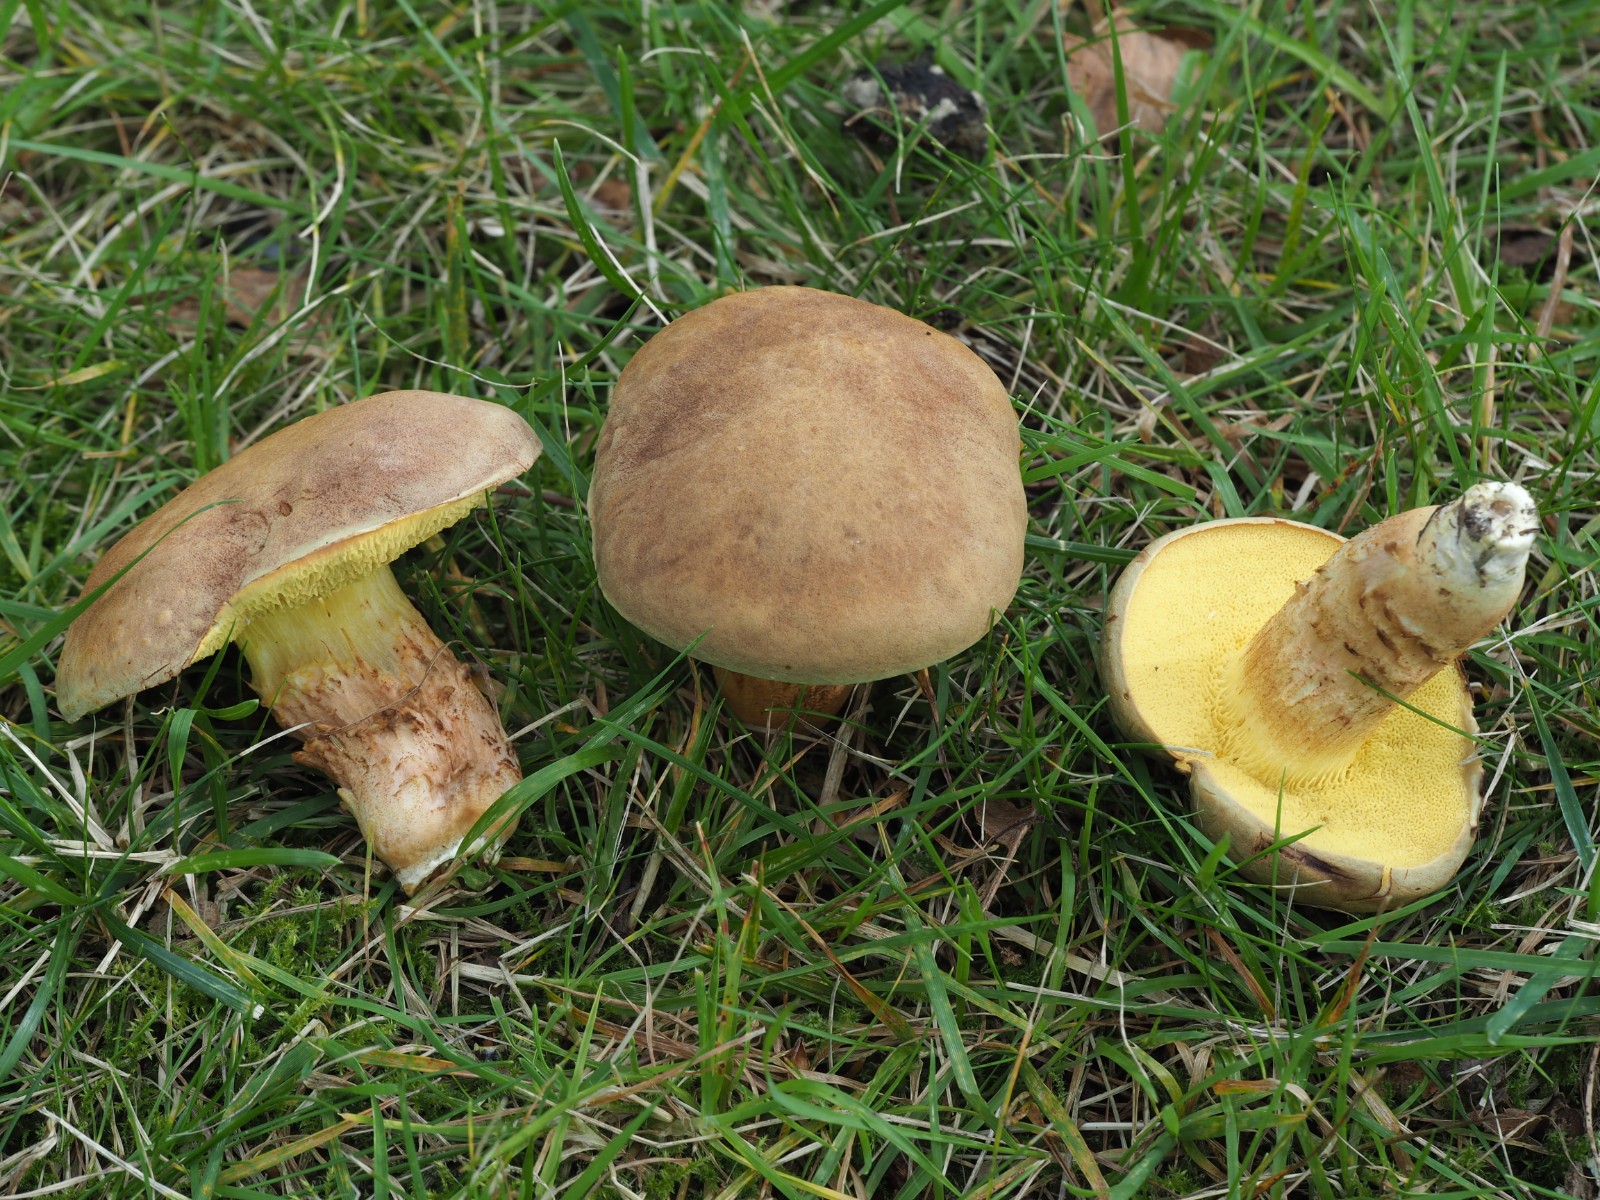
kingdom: Fungi
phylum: Basidiomycota
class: Agaricomycetes
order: Boletales
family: Boletaceae
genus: Xerocomus
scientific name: Xerocomus ferrugineus
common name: vaskeskinds-rørhat
